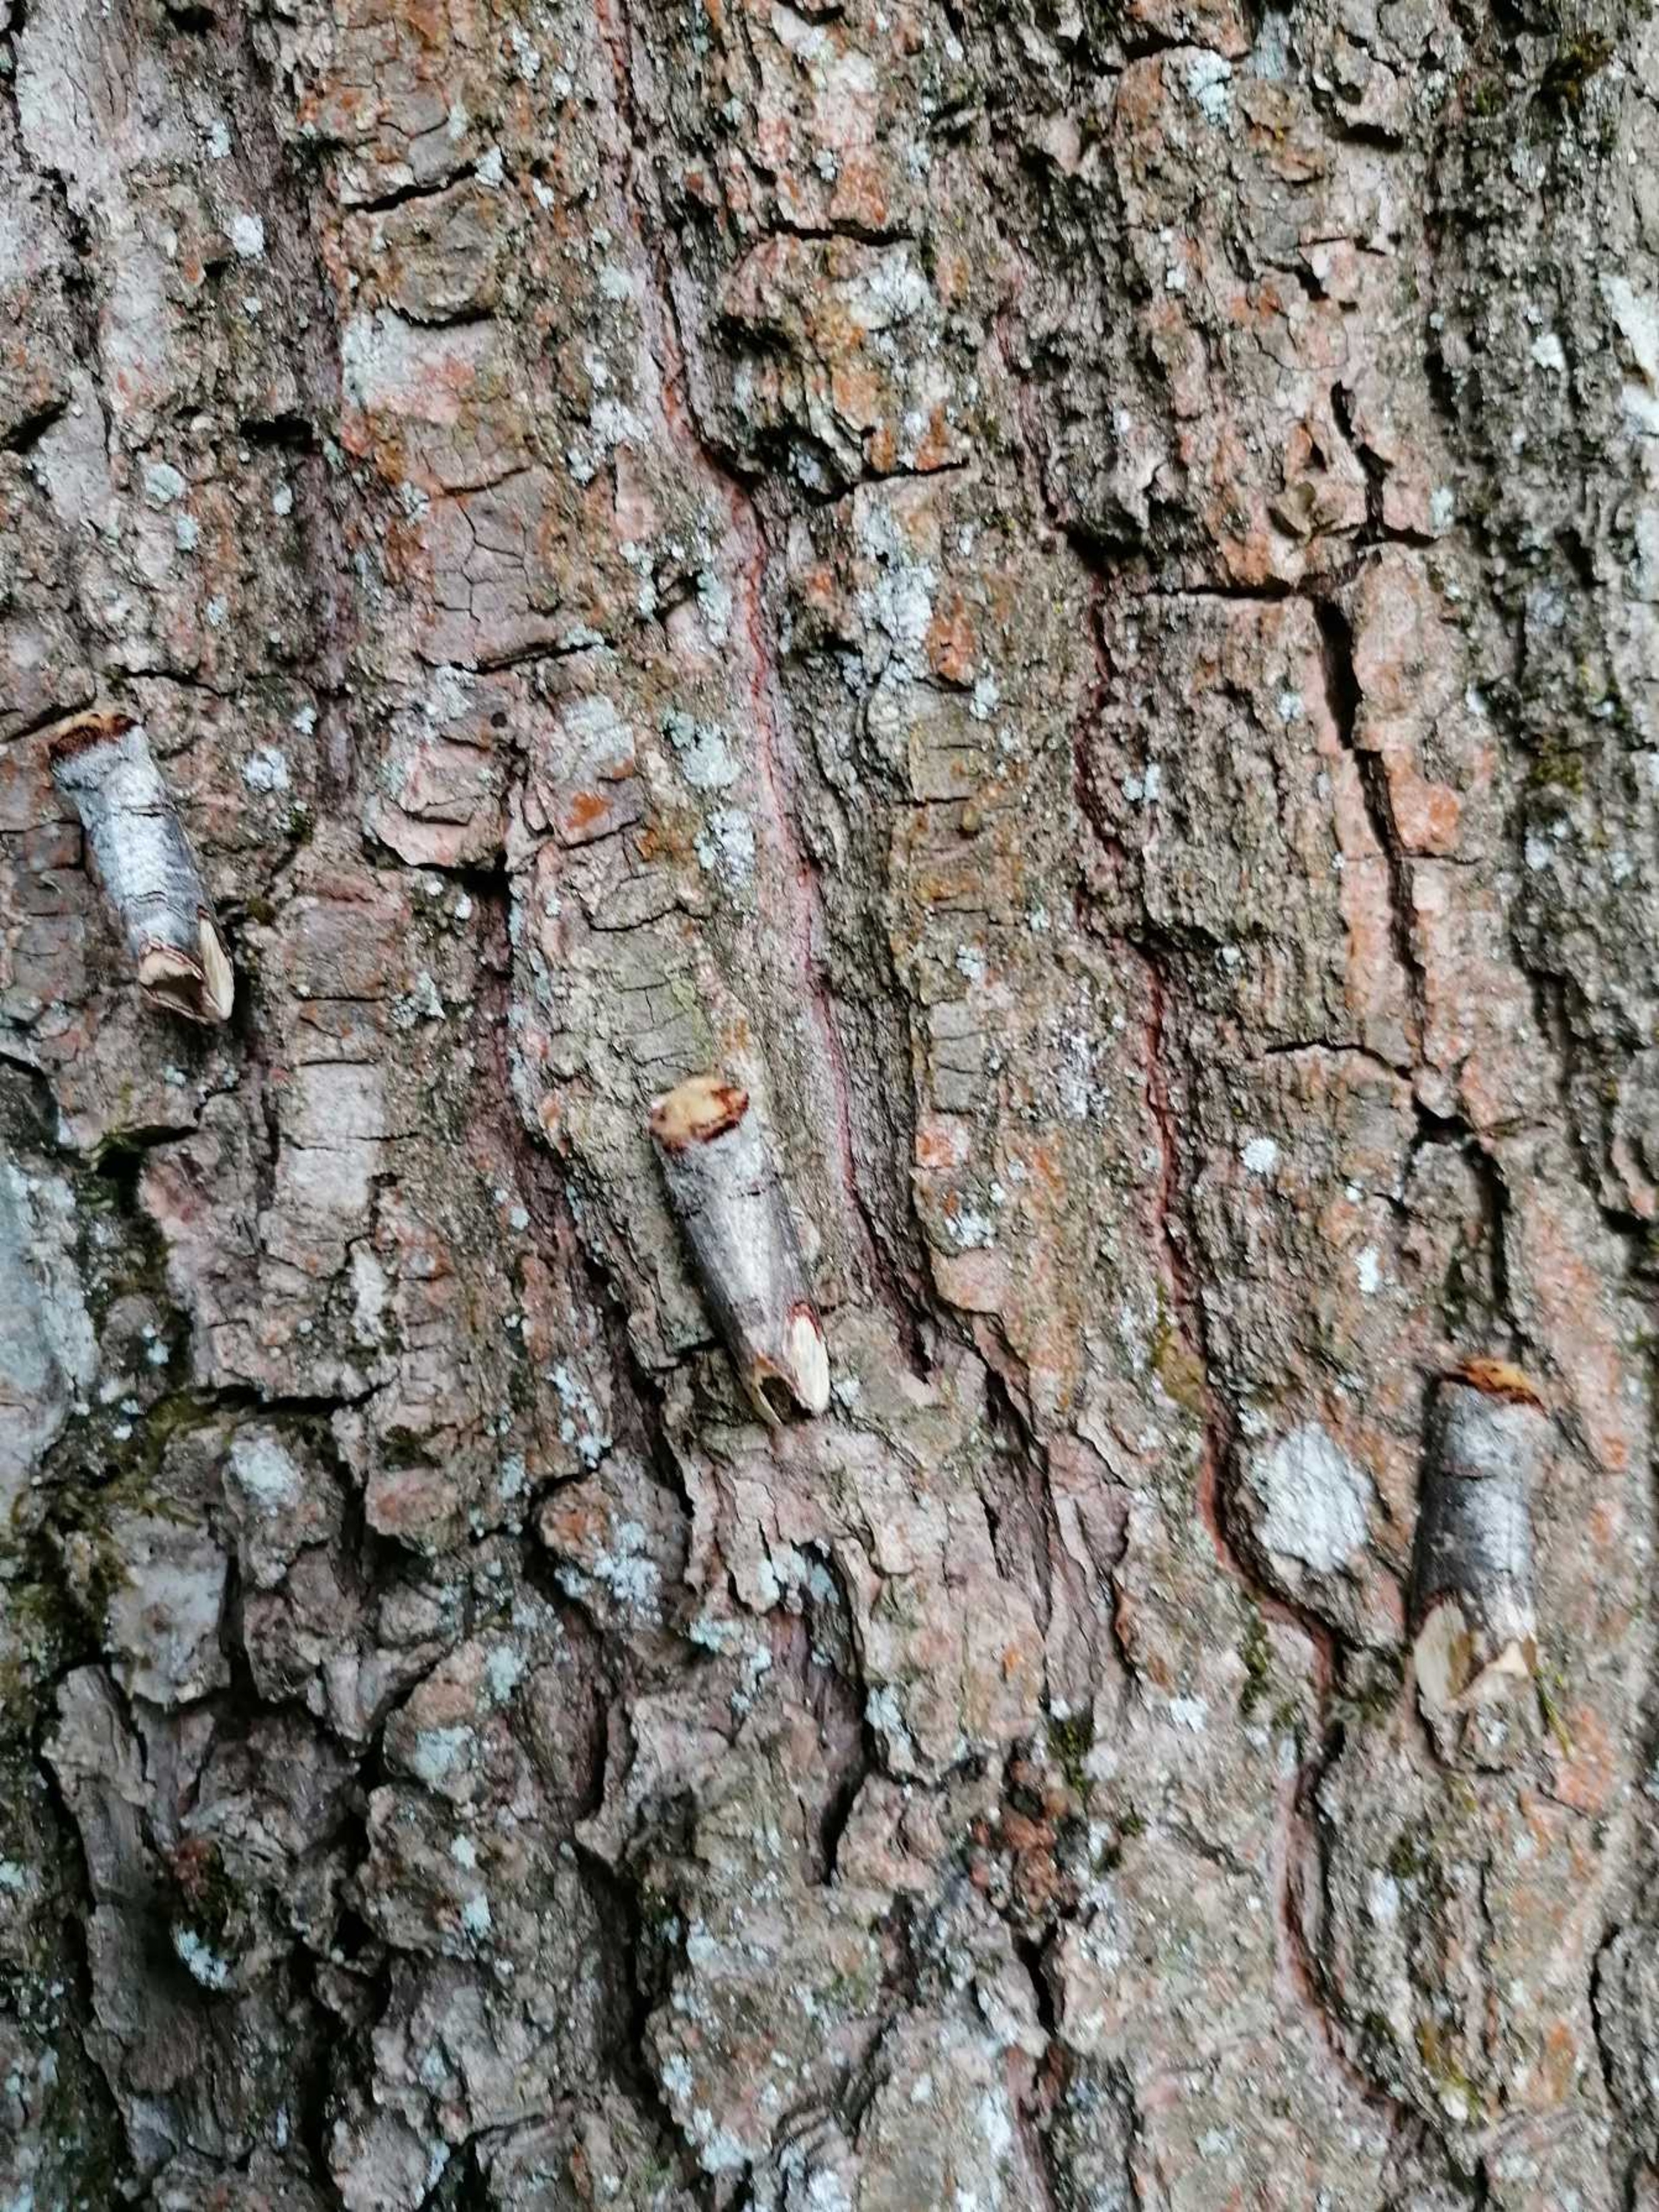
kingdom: Animalia
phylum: Arthropoda
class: Insecta
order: Lepidoptera
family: Notodontidae
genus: Phalera
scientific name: Phalera bucephala
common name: Måneplet
